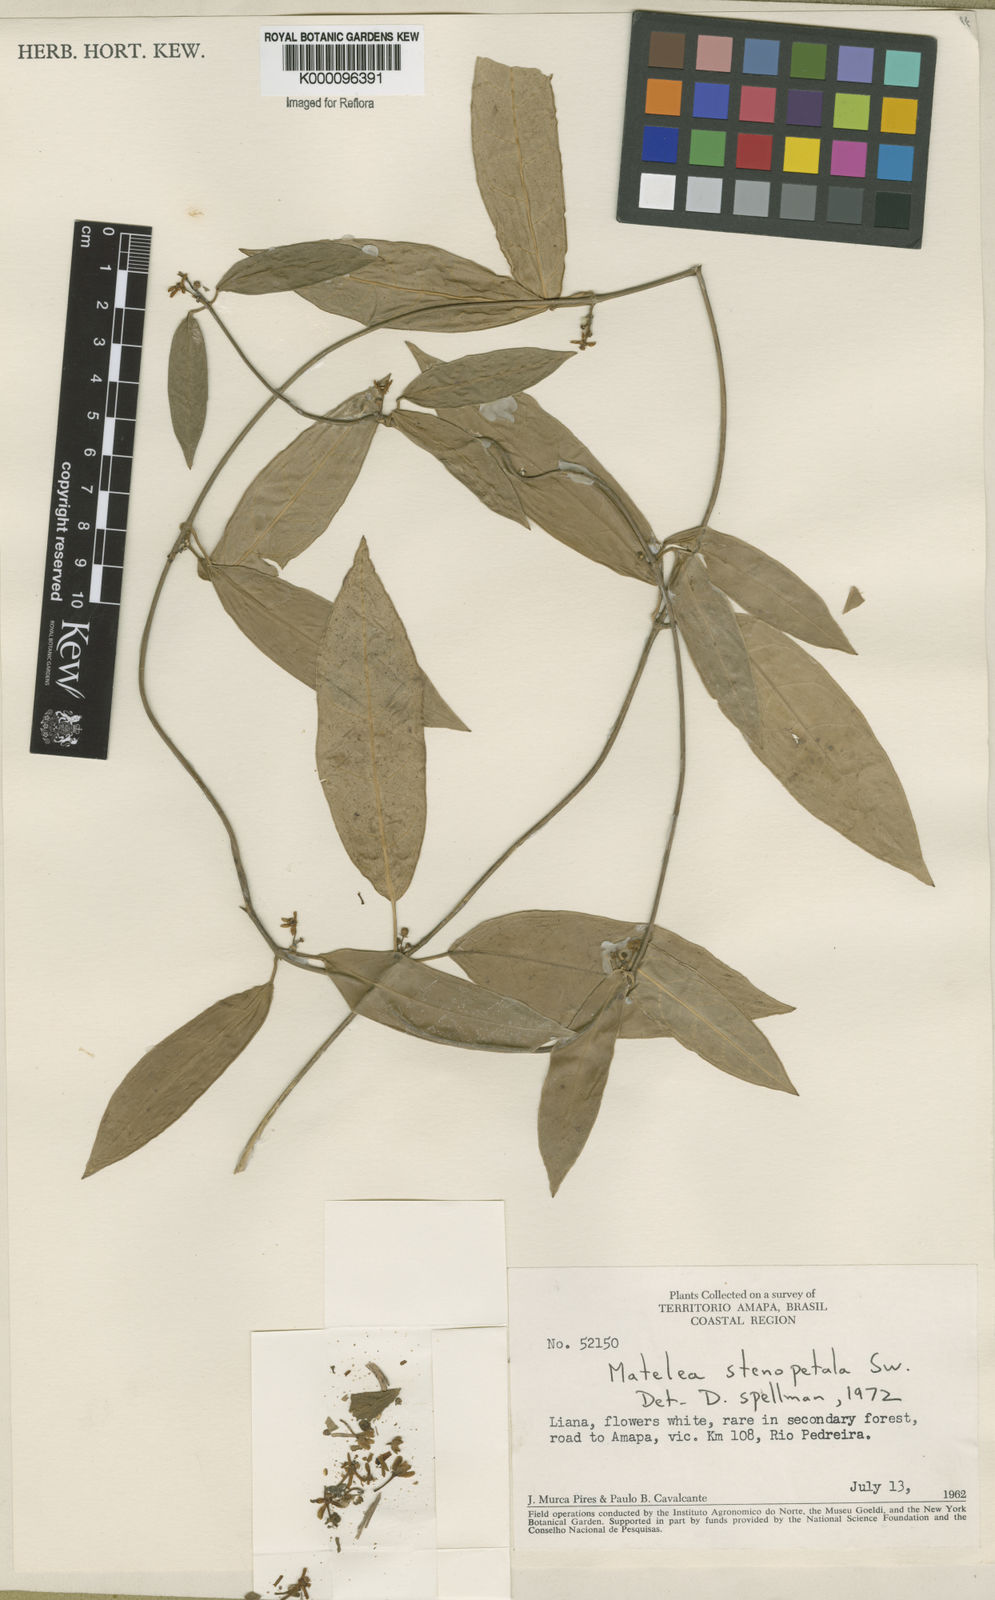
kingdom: Plantae
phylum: Tracheophyta
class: Magnoliopsida
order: Gentianales
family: Apocynaceae
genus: Matelea
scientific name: Matelea stenopetala
